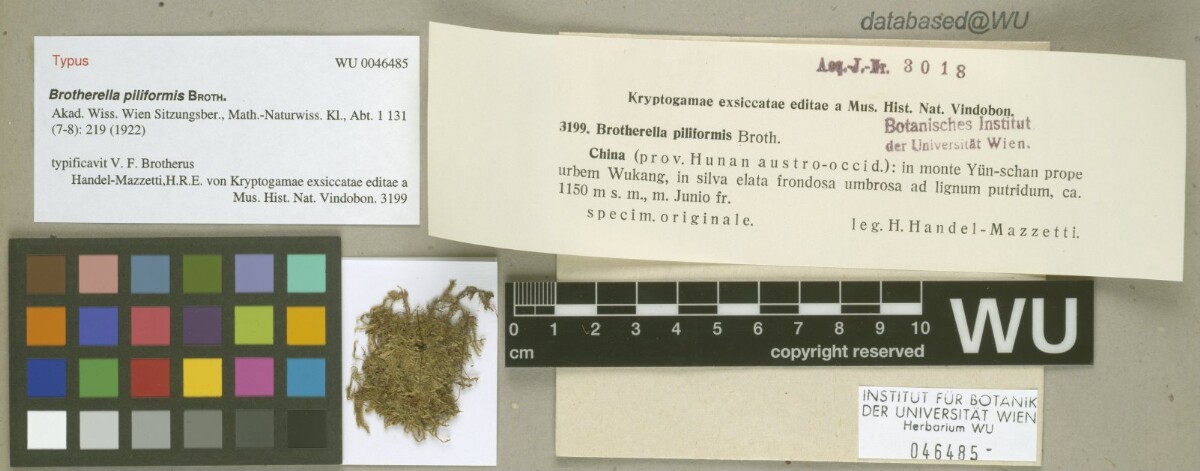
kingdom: Plantae
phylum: Bryophyta
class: Bryopsida
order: Hypnales
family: Pylaisiadelphaceae
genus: Wijkia
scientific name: Wijkia hornschuchii
